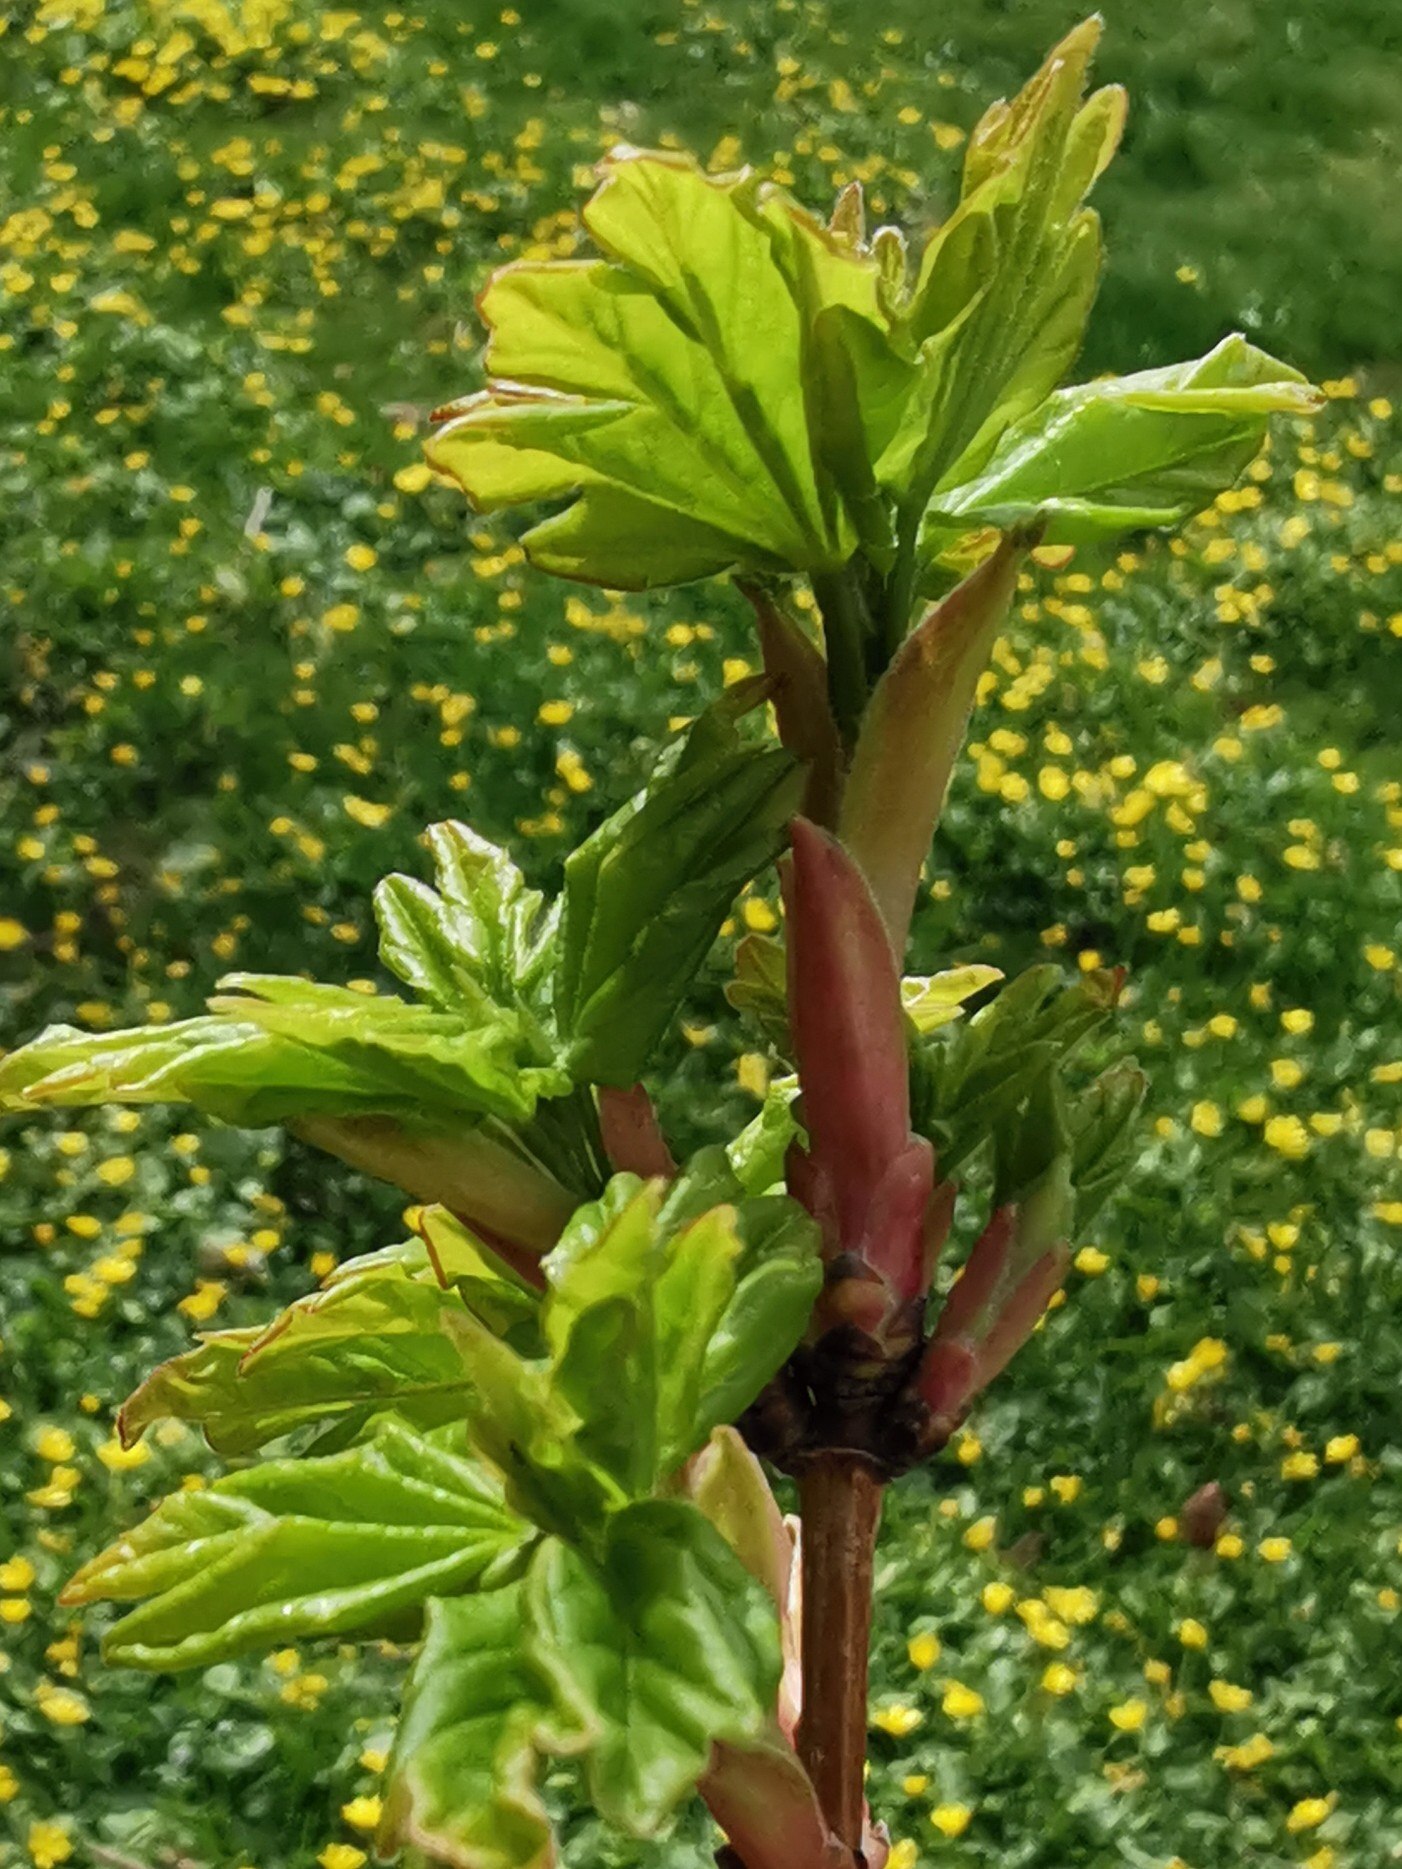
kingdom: Plantae
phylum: Tracheophyta
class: Magnoliopsida
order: Sapindales
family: Sapindaceae
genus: Acer
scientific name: Acer campestre
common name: Navr
